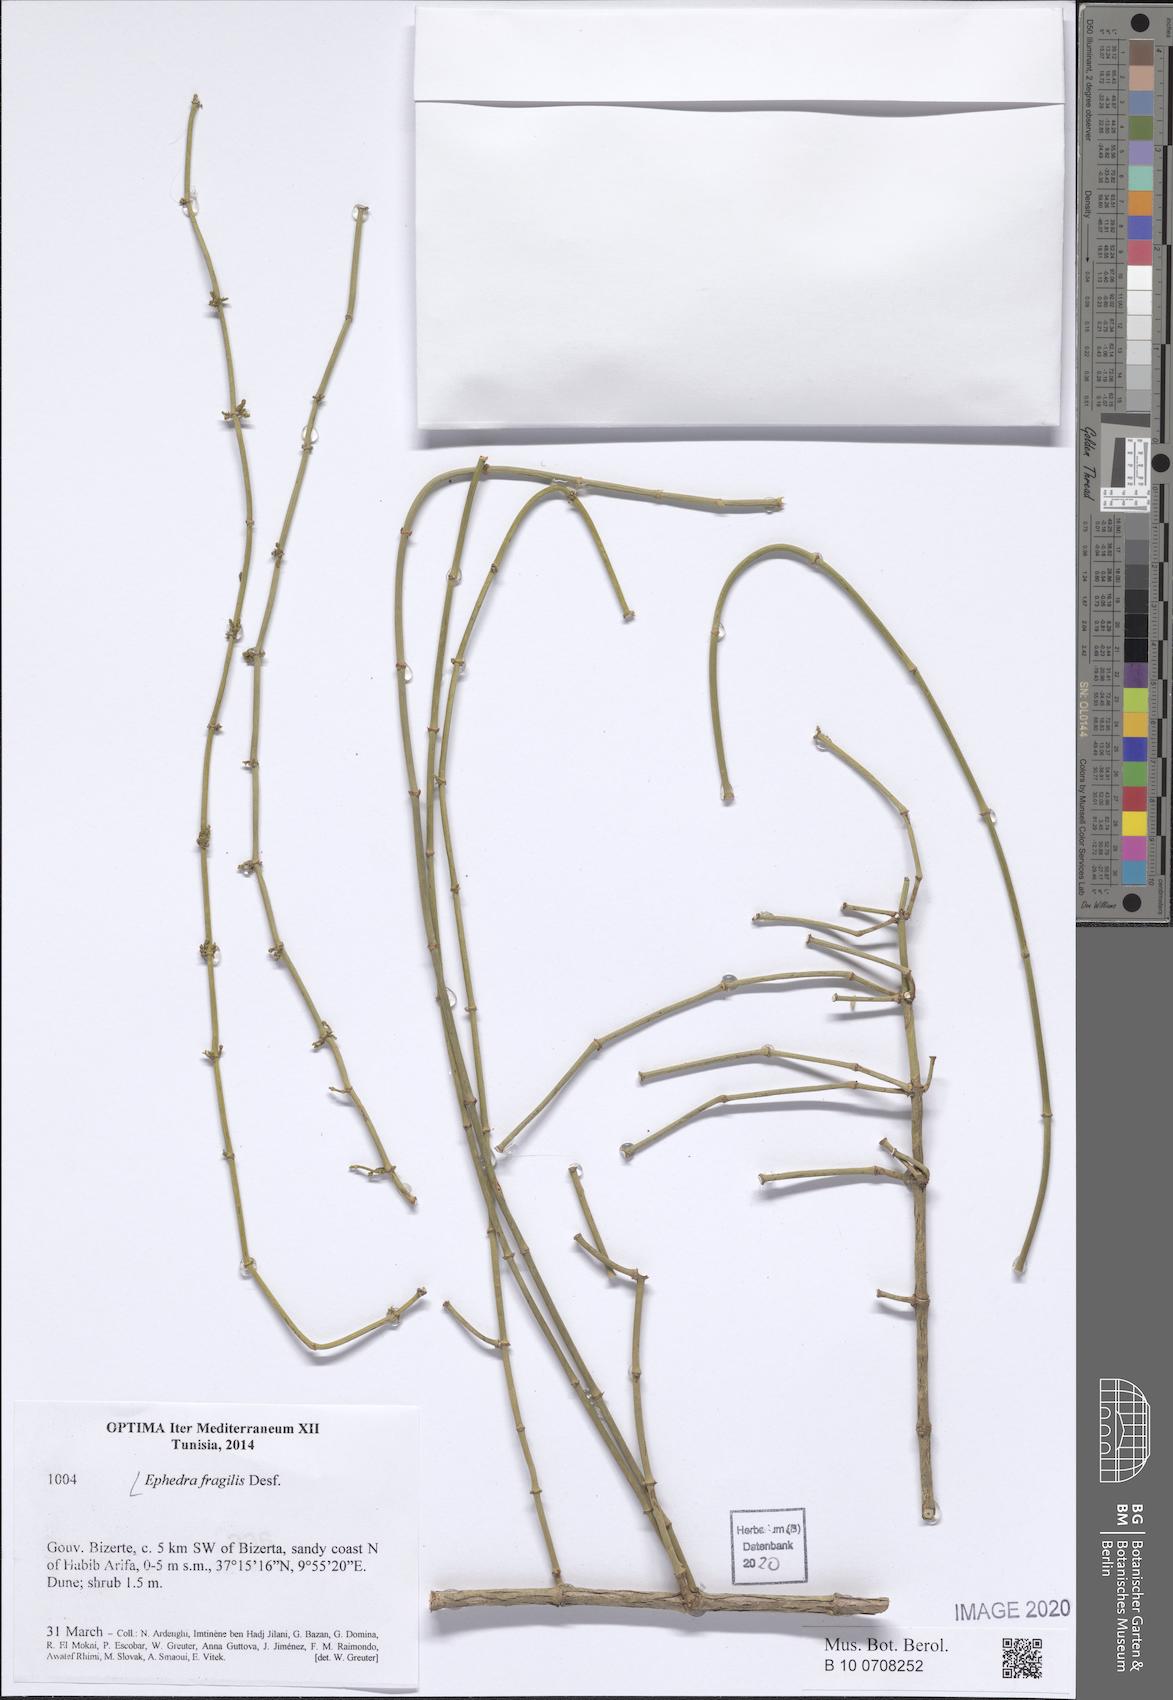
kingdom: Plantae
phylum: Tracheophyta
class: Gnetopsida
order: Ephedrales
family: Ephedraceae
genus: Ephedra
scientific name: Ephedra fragilis
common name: Joint pine
